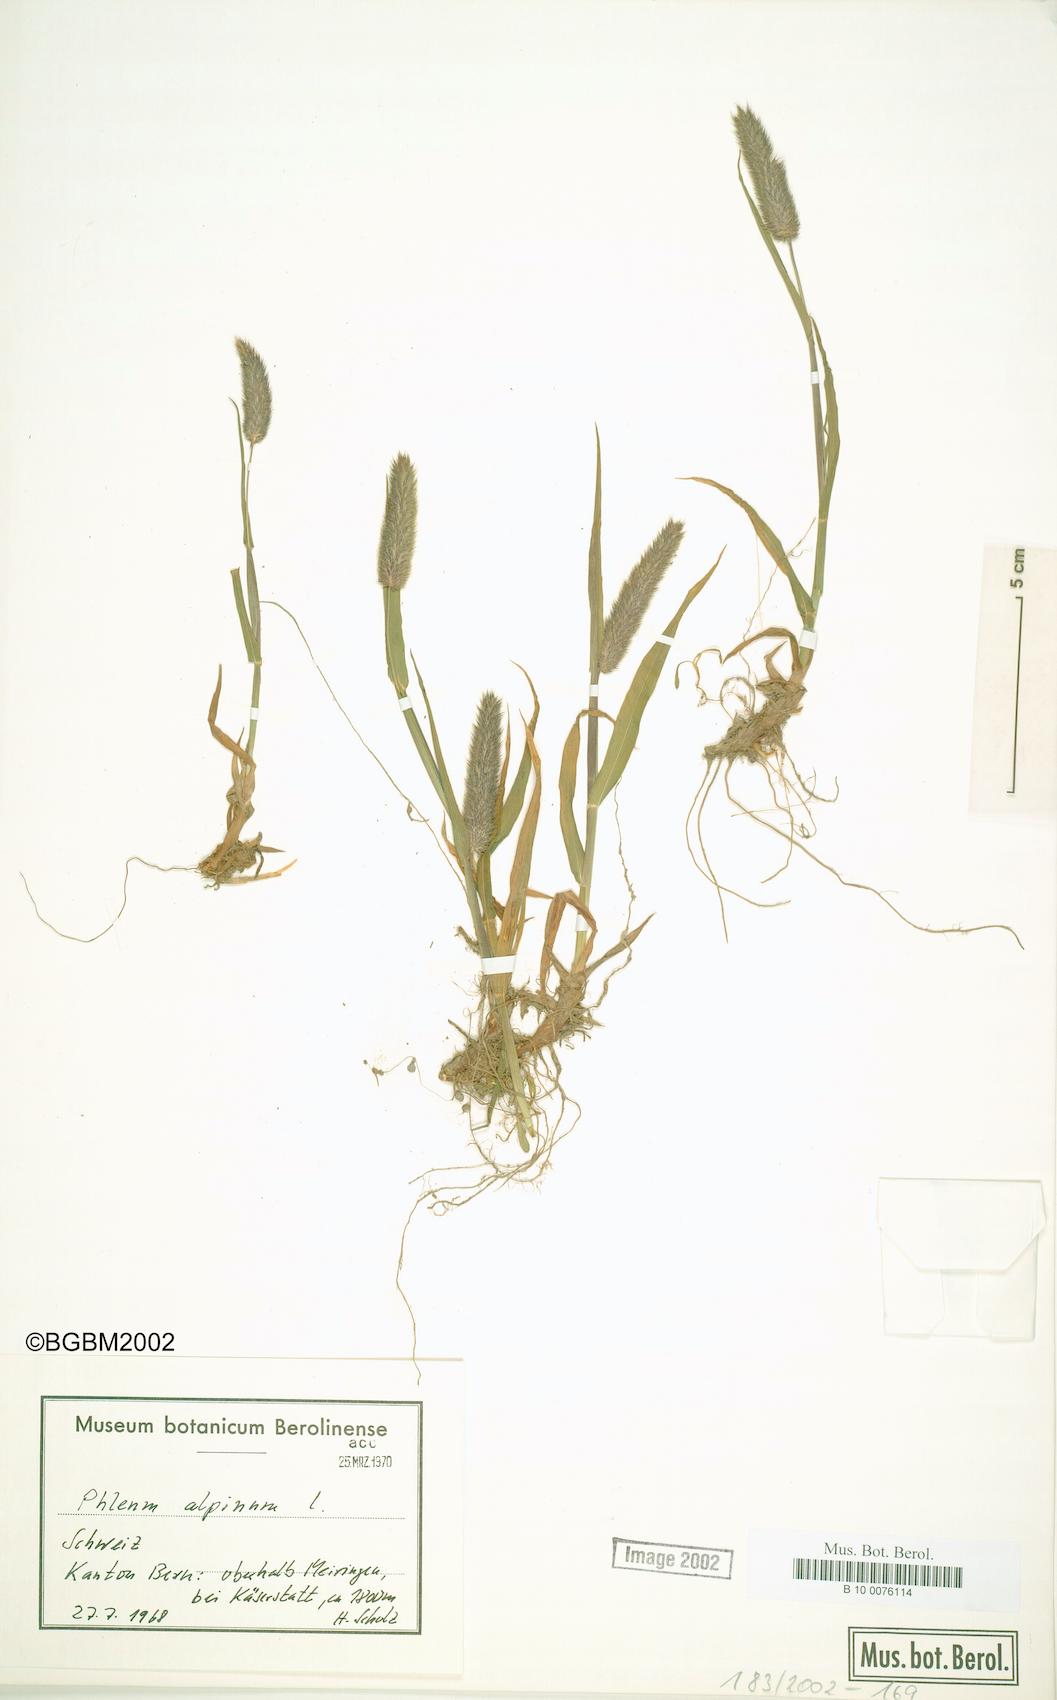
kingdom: Plantae
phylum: Tracheophyta
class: Liliopsida
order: Poales
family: Poaceae
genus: Phleum
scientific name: Phleum alpinum
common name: Alpine cat's-tail
